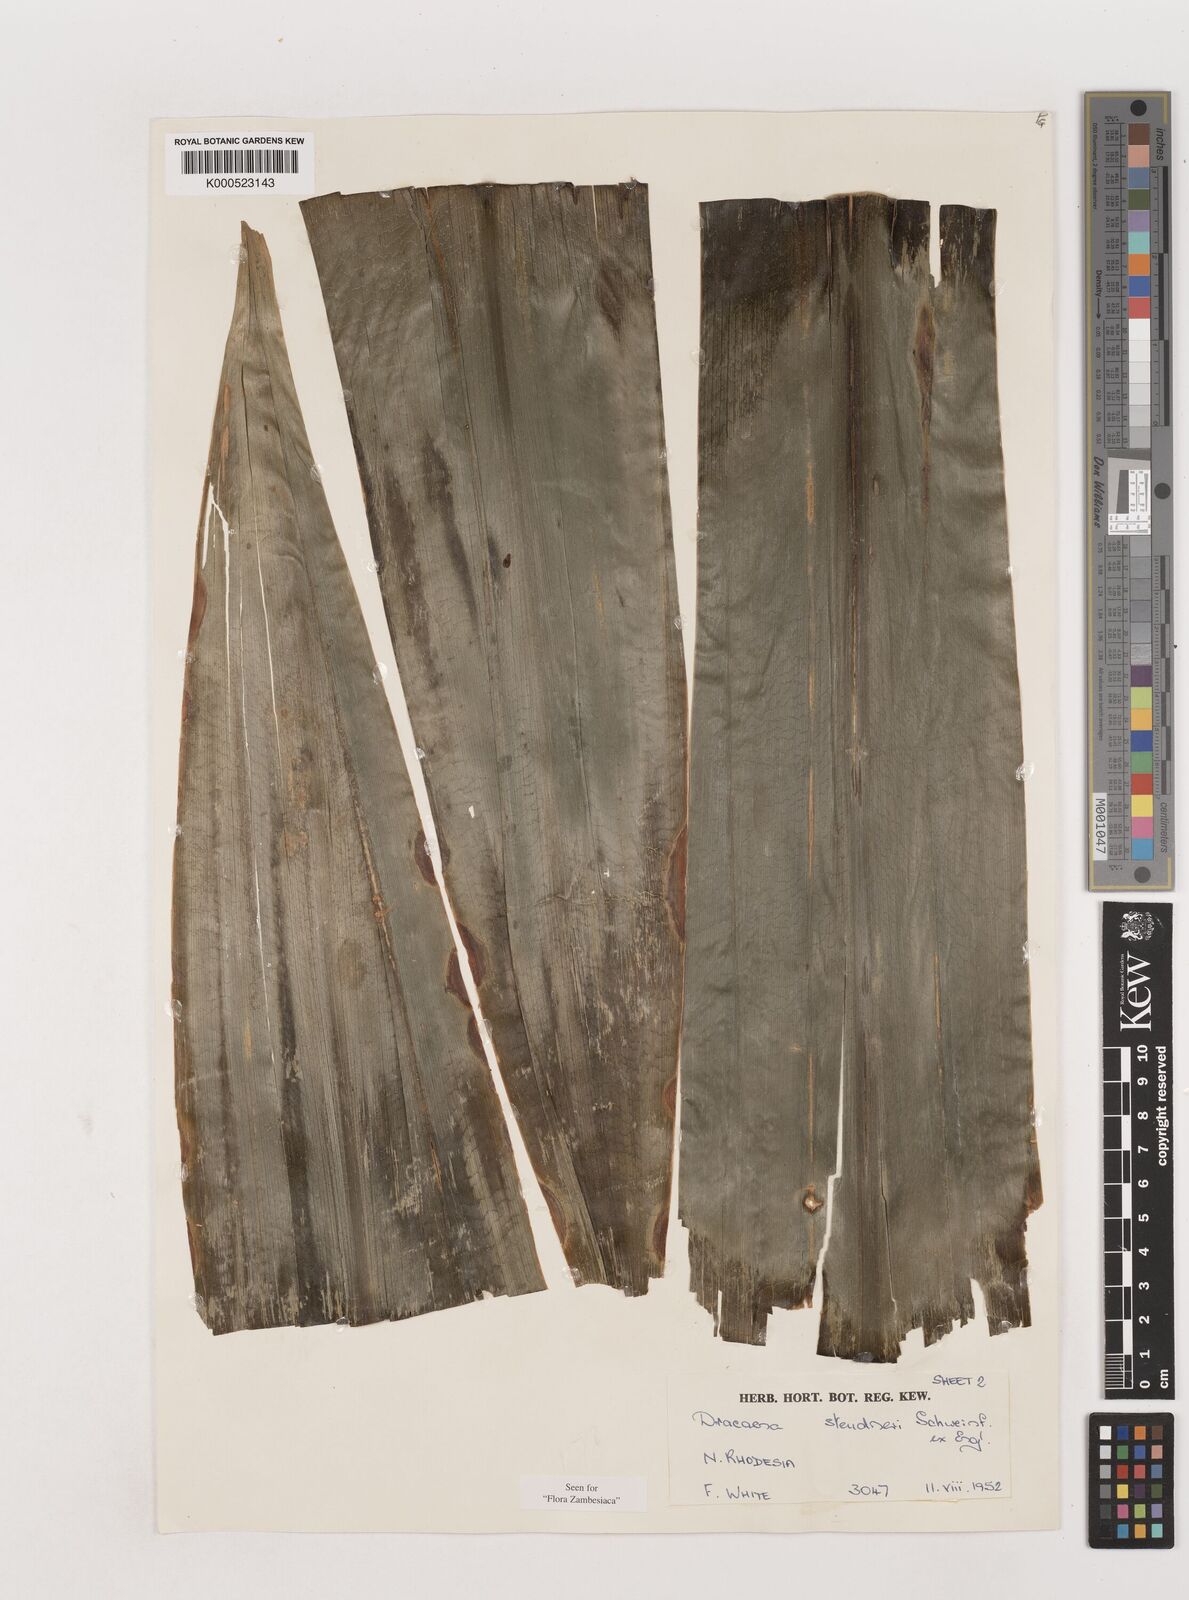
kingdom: Plantae
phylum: Tracheophyta
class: Liliopsida
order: Asparagales
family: Asparagaceae
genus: Dracaena
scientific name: Dracaena steudneri
